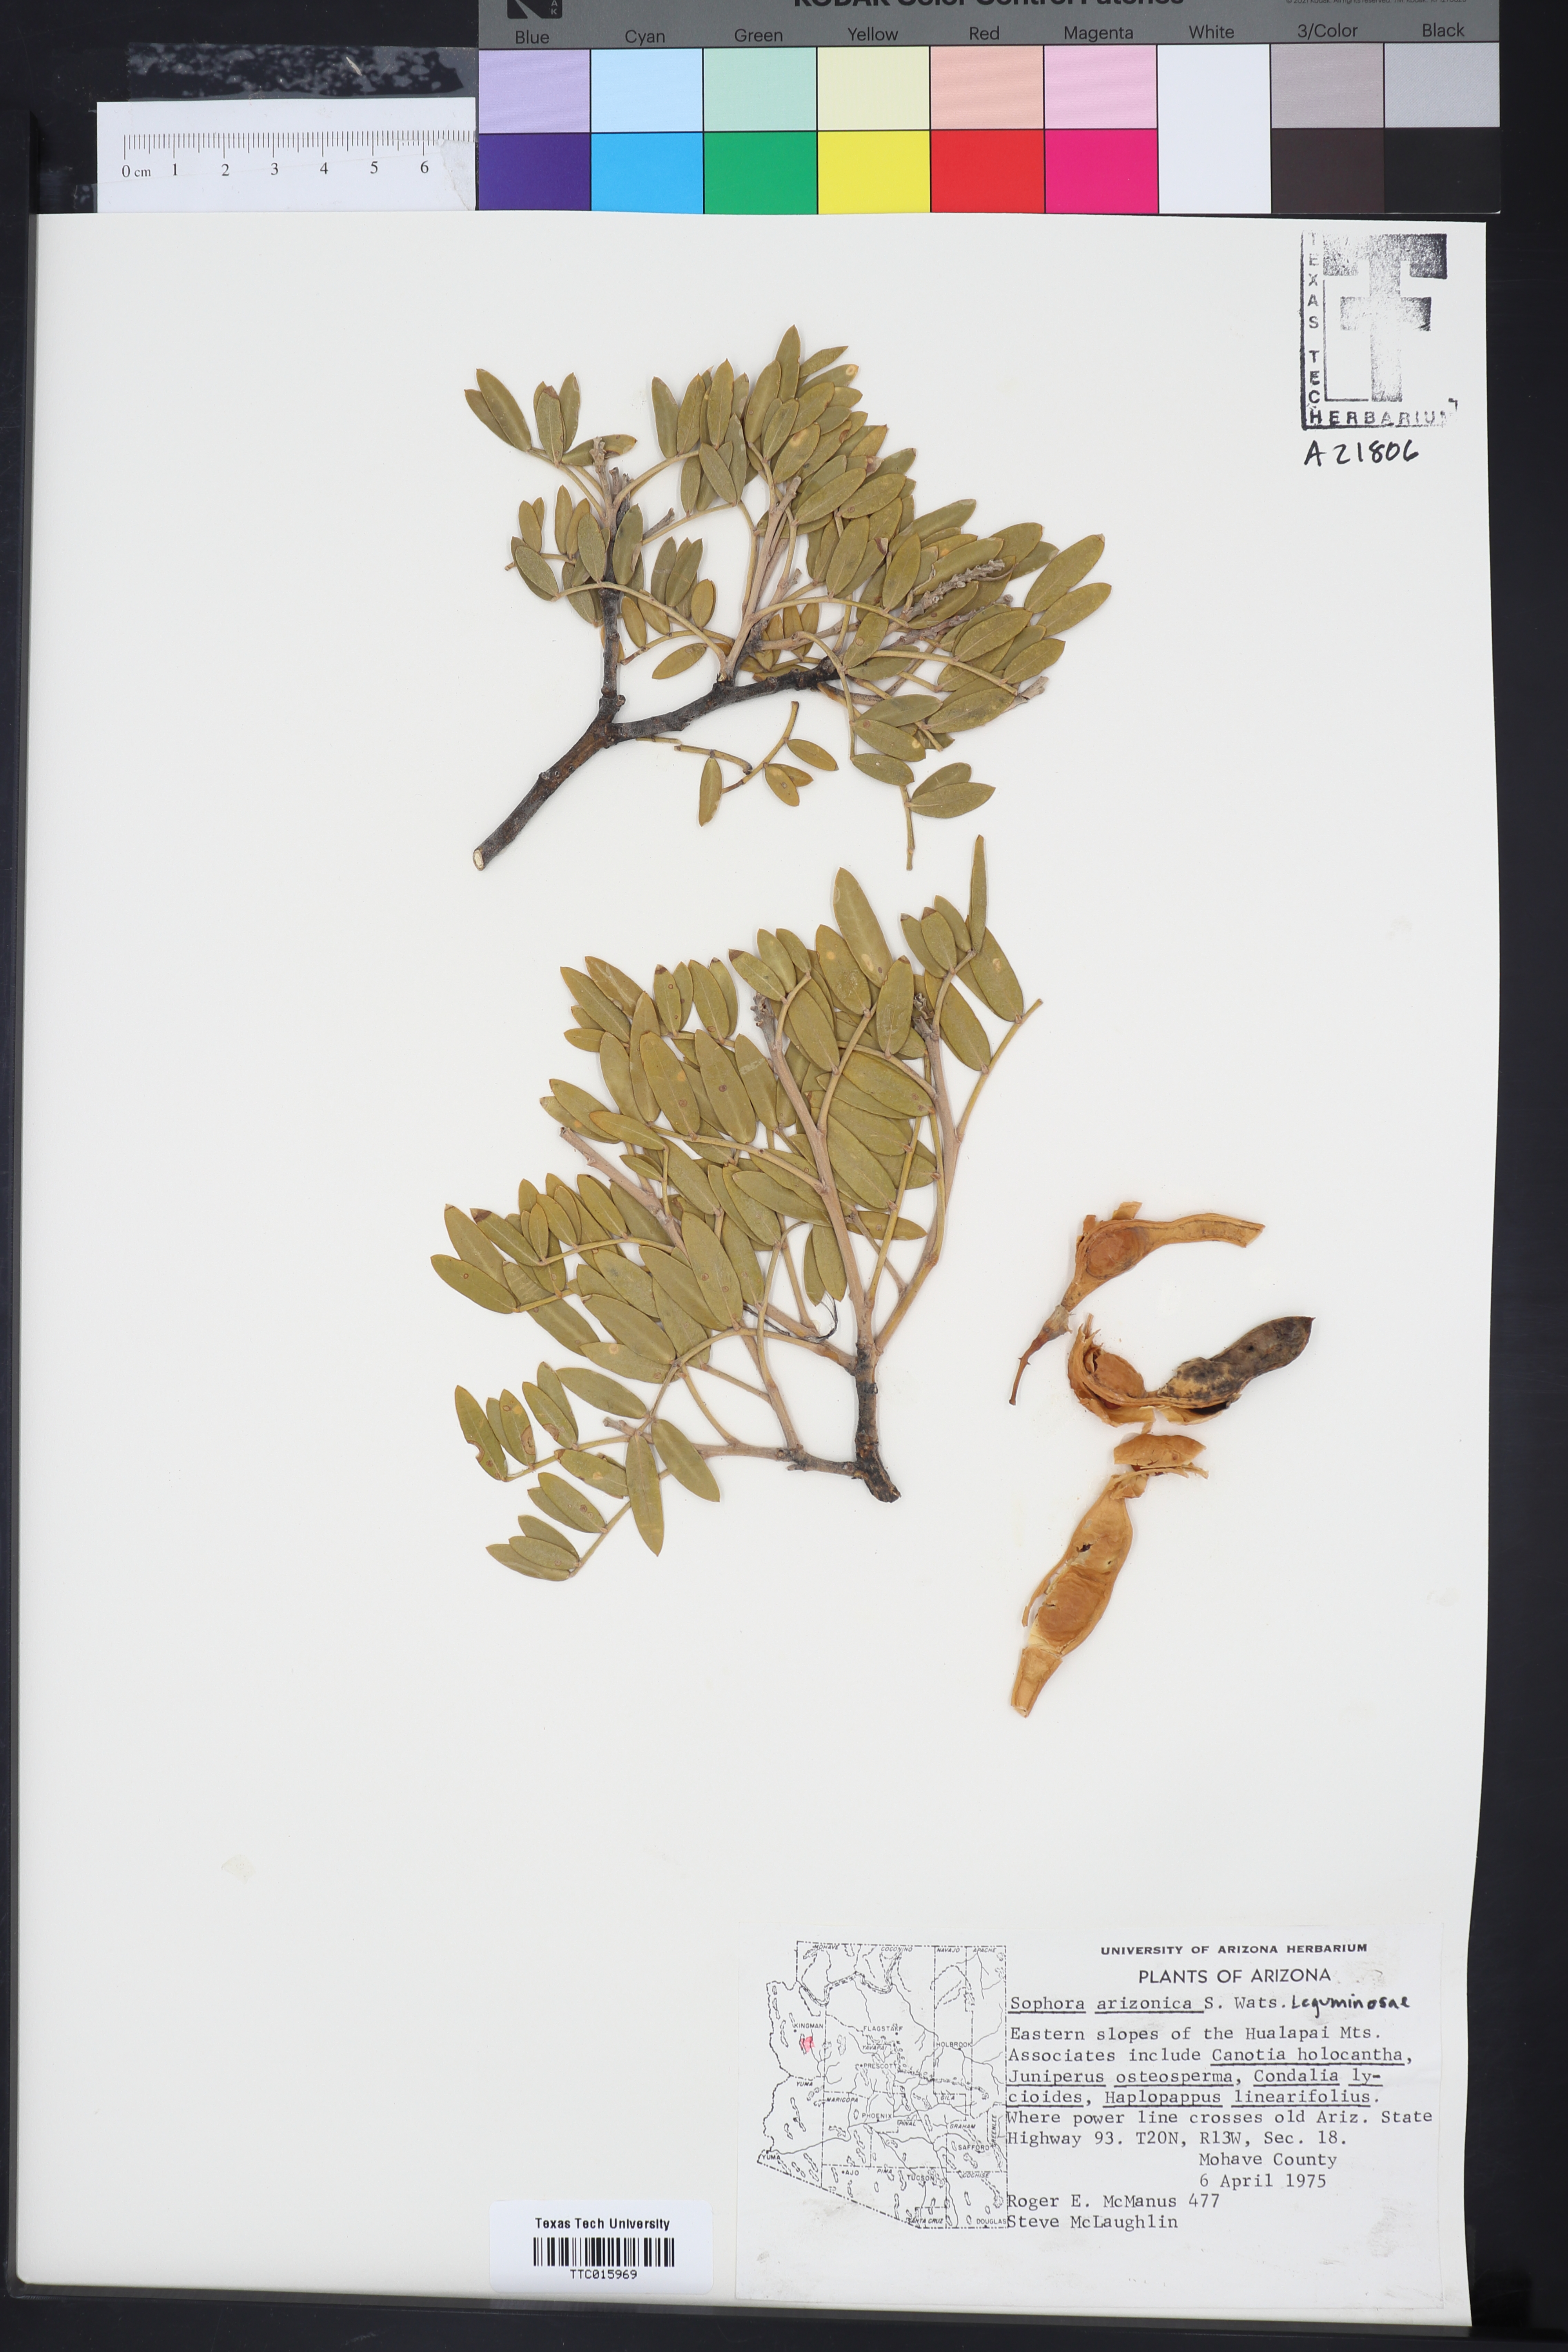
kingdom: Plantae
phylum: Tracheophyta
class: Magnoliopsida
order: Fabales
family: Fabaceae
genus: Dermatophyllum
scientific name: Dermatophyllum arizonicum
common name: Arizona necklace
